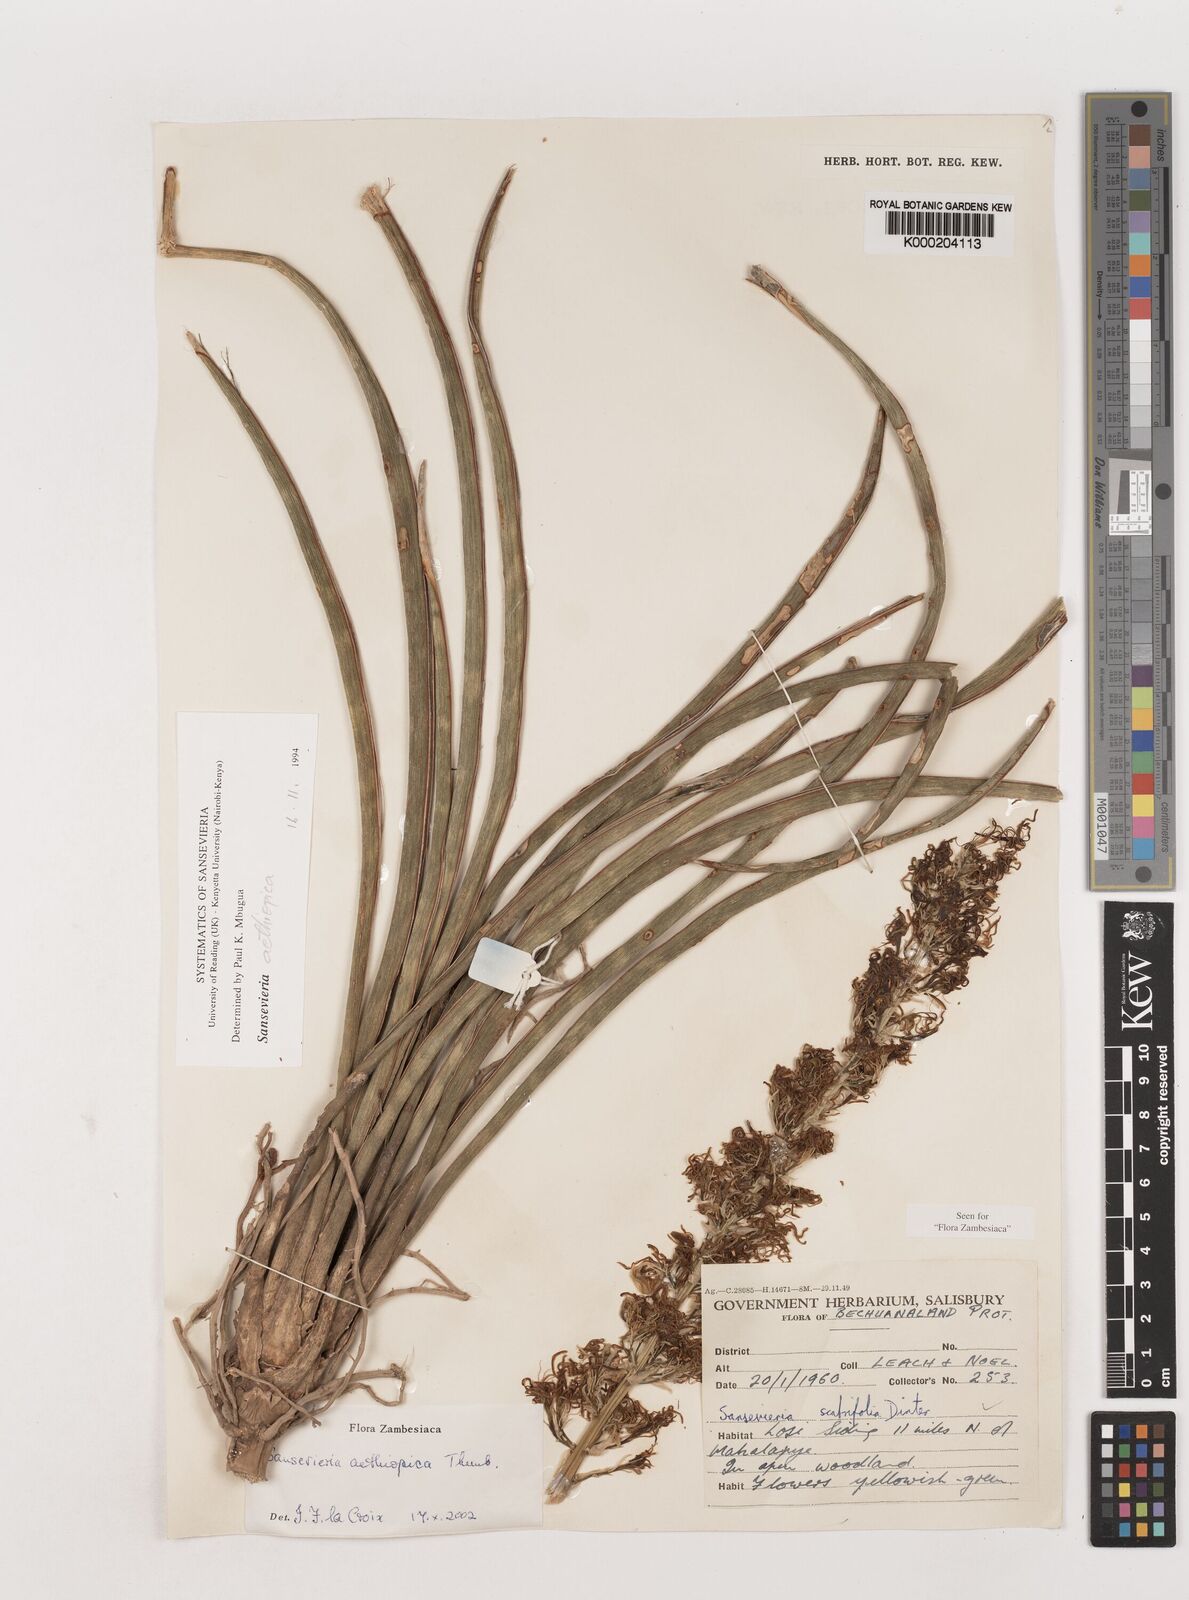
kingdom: Plantae
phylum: Tracheophyta
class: Liliopsida
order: Asparagales
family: Asparagaceae
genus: Dracaena
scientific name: Dracaena aethiopica
